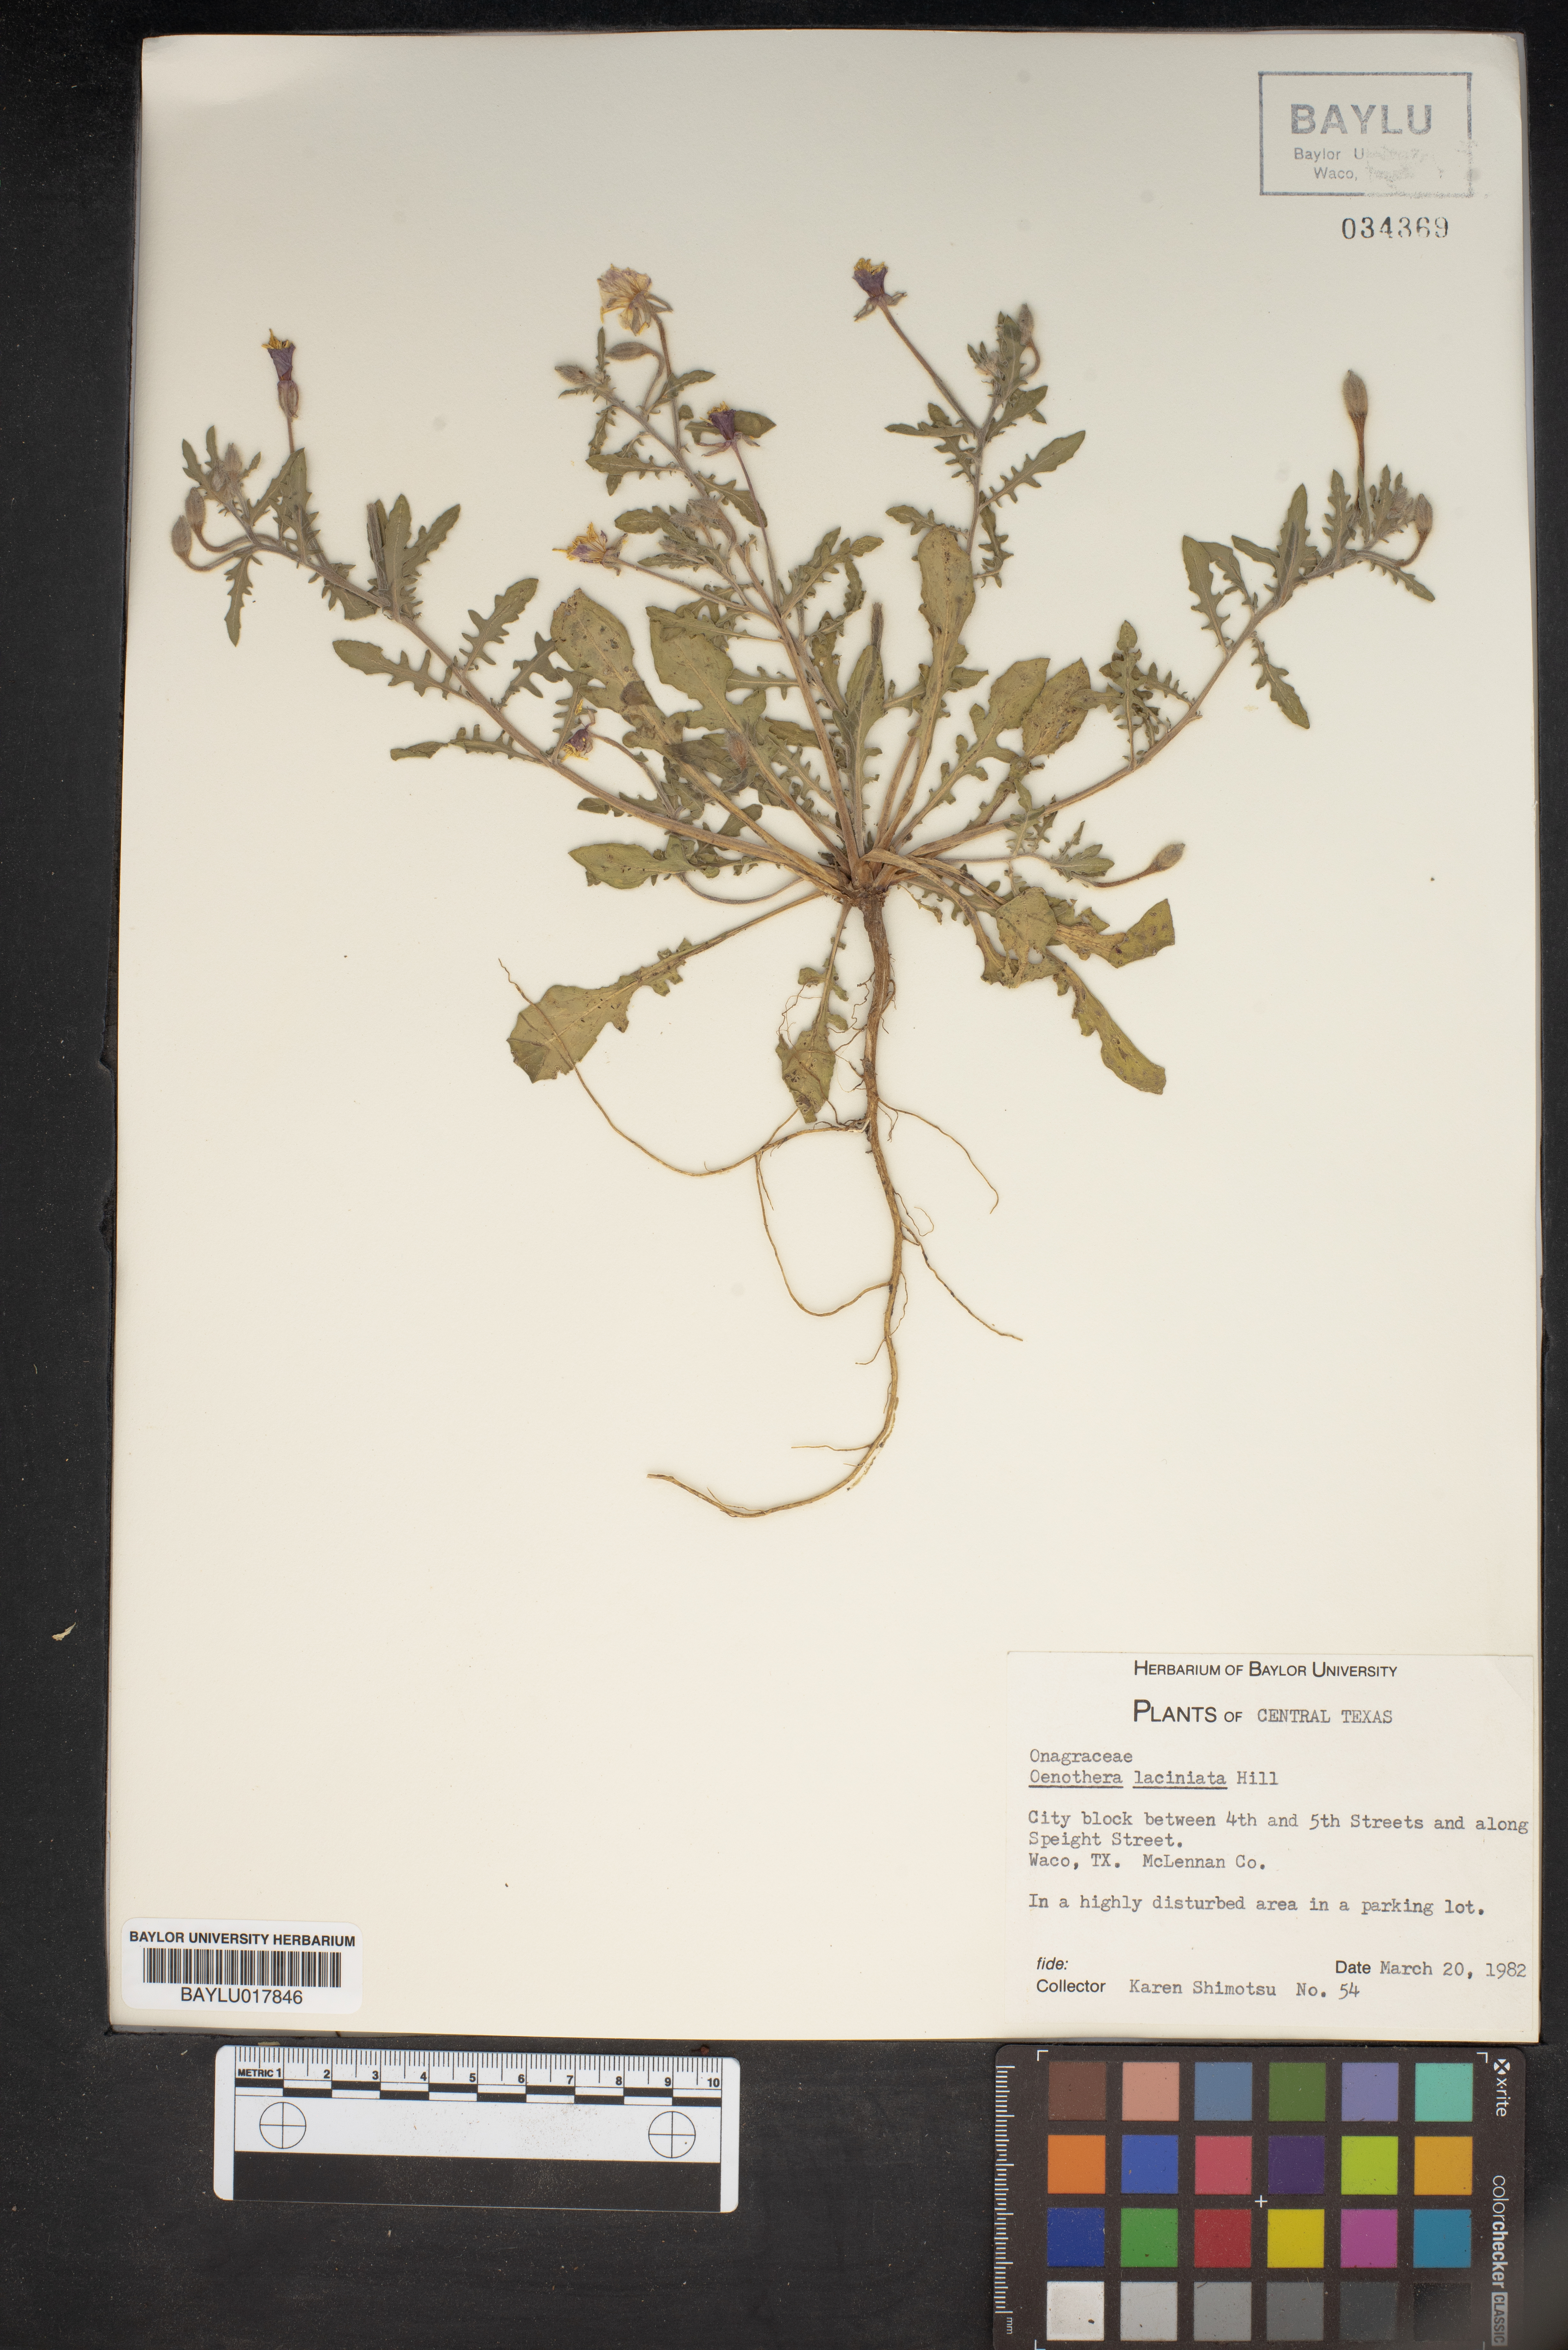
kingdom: Plantae
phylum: Tracheophyta
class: Magnoliopsida
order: Myrtales
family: Onagraceae
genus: Oenothera
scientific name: Oenothera laciniata
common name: Cut-leaved evening-primrose
